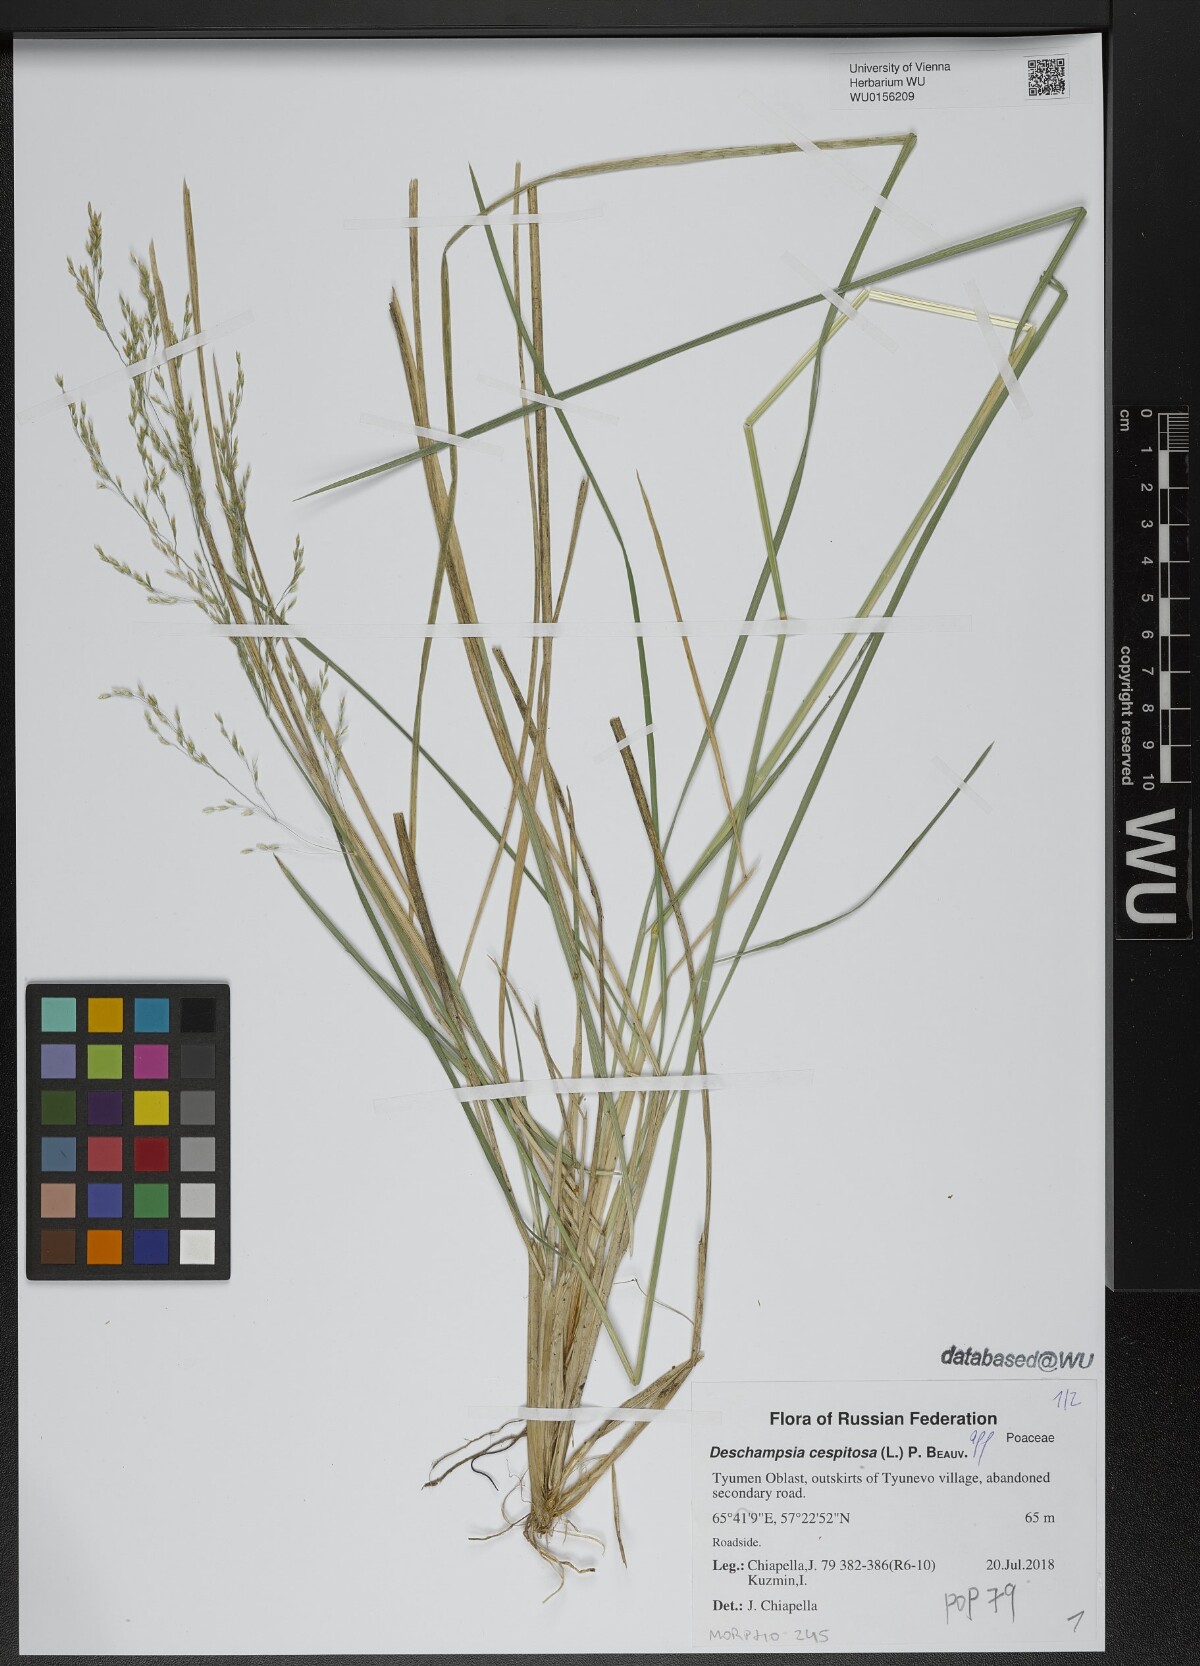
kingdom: Plantae
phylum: Tracheophyta
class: Liliopsida
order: Poales
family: Poaceae
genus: Deschampsia
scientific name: Deschampsia cespitosa
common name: Tufted hair-grass
